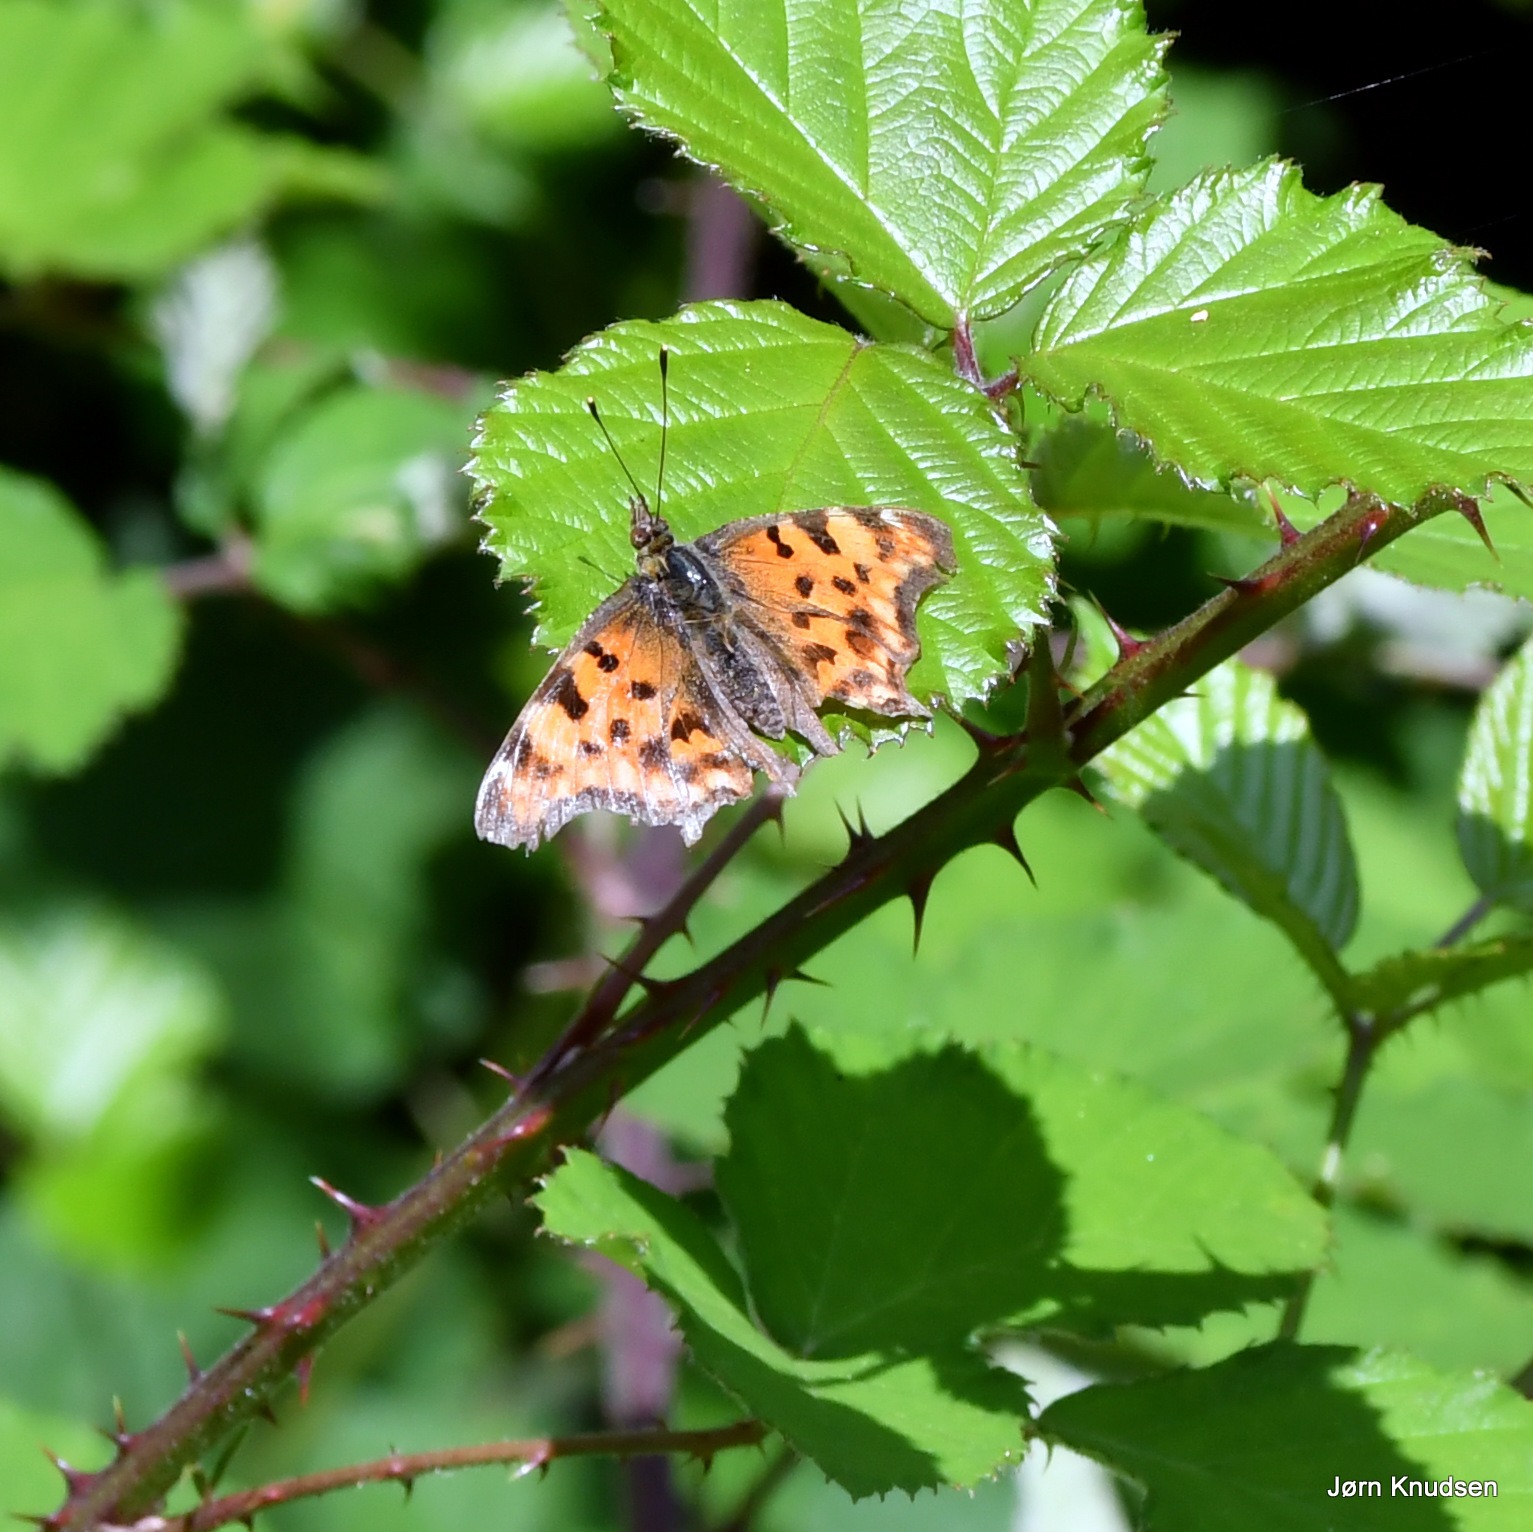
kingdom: Animalia
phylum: Arthropoda
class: Insecta
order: Lepidoptera
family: Nymphalidae
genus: Polygonia
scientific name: Polygonia c-album
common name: Det hvide C
